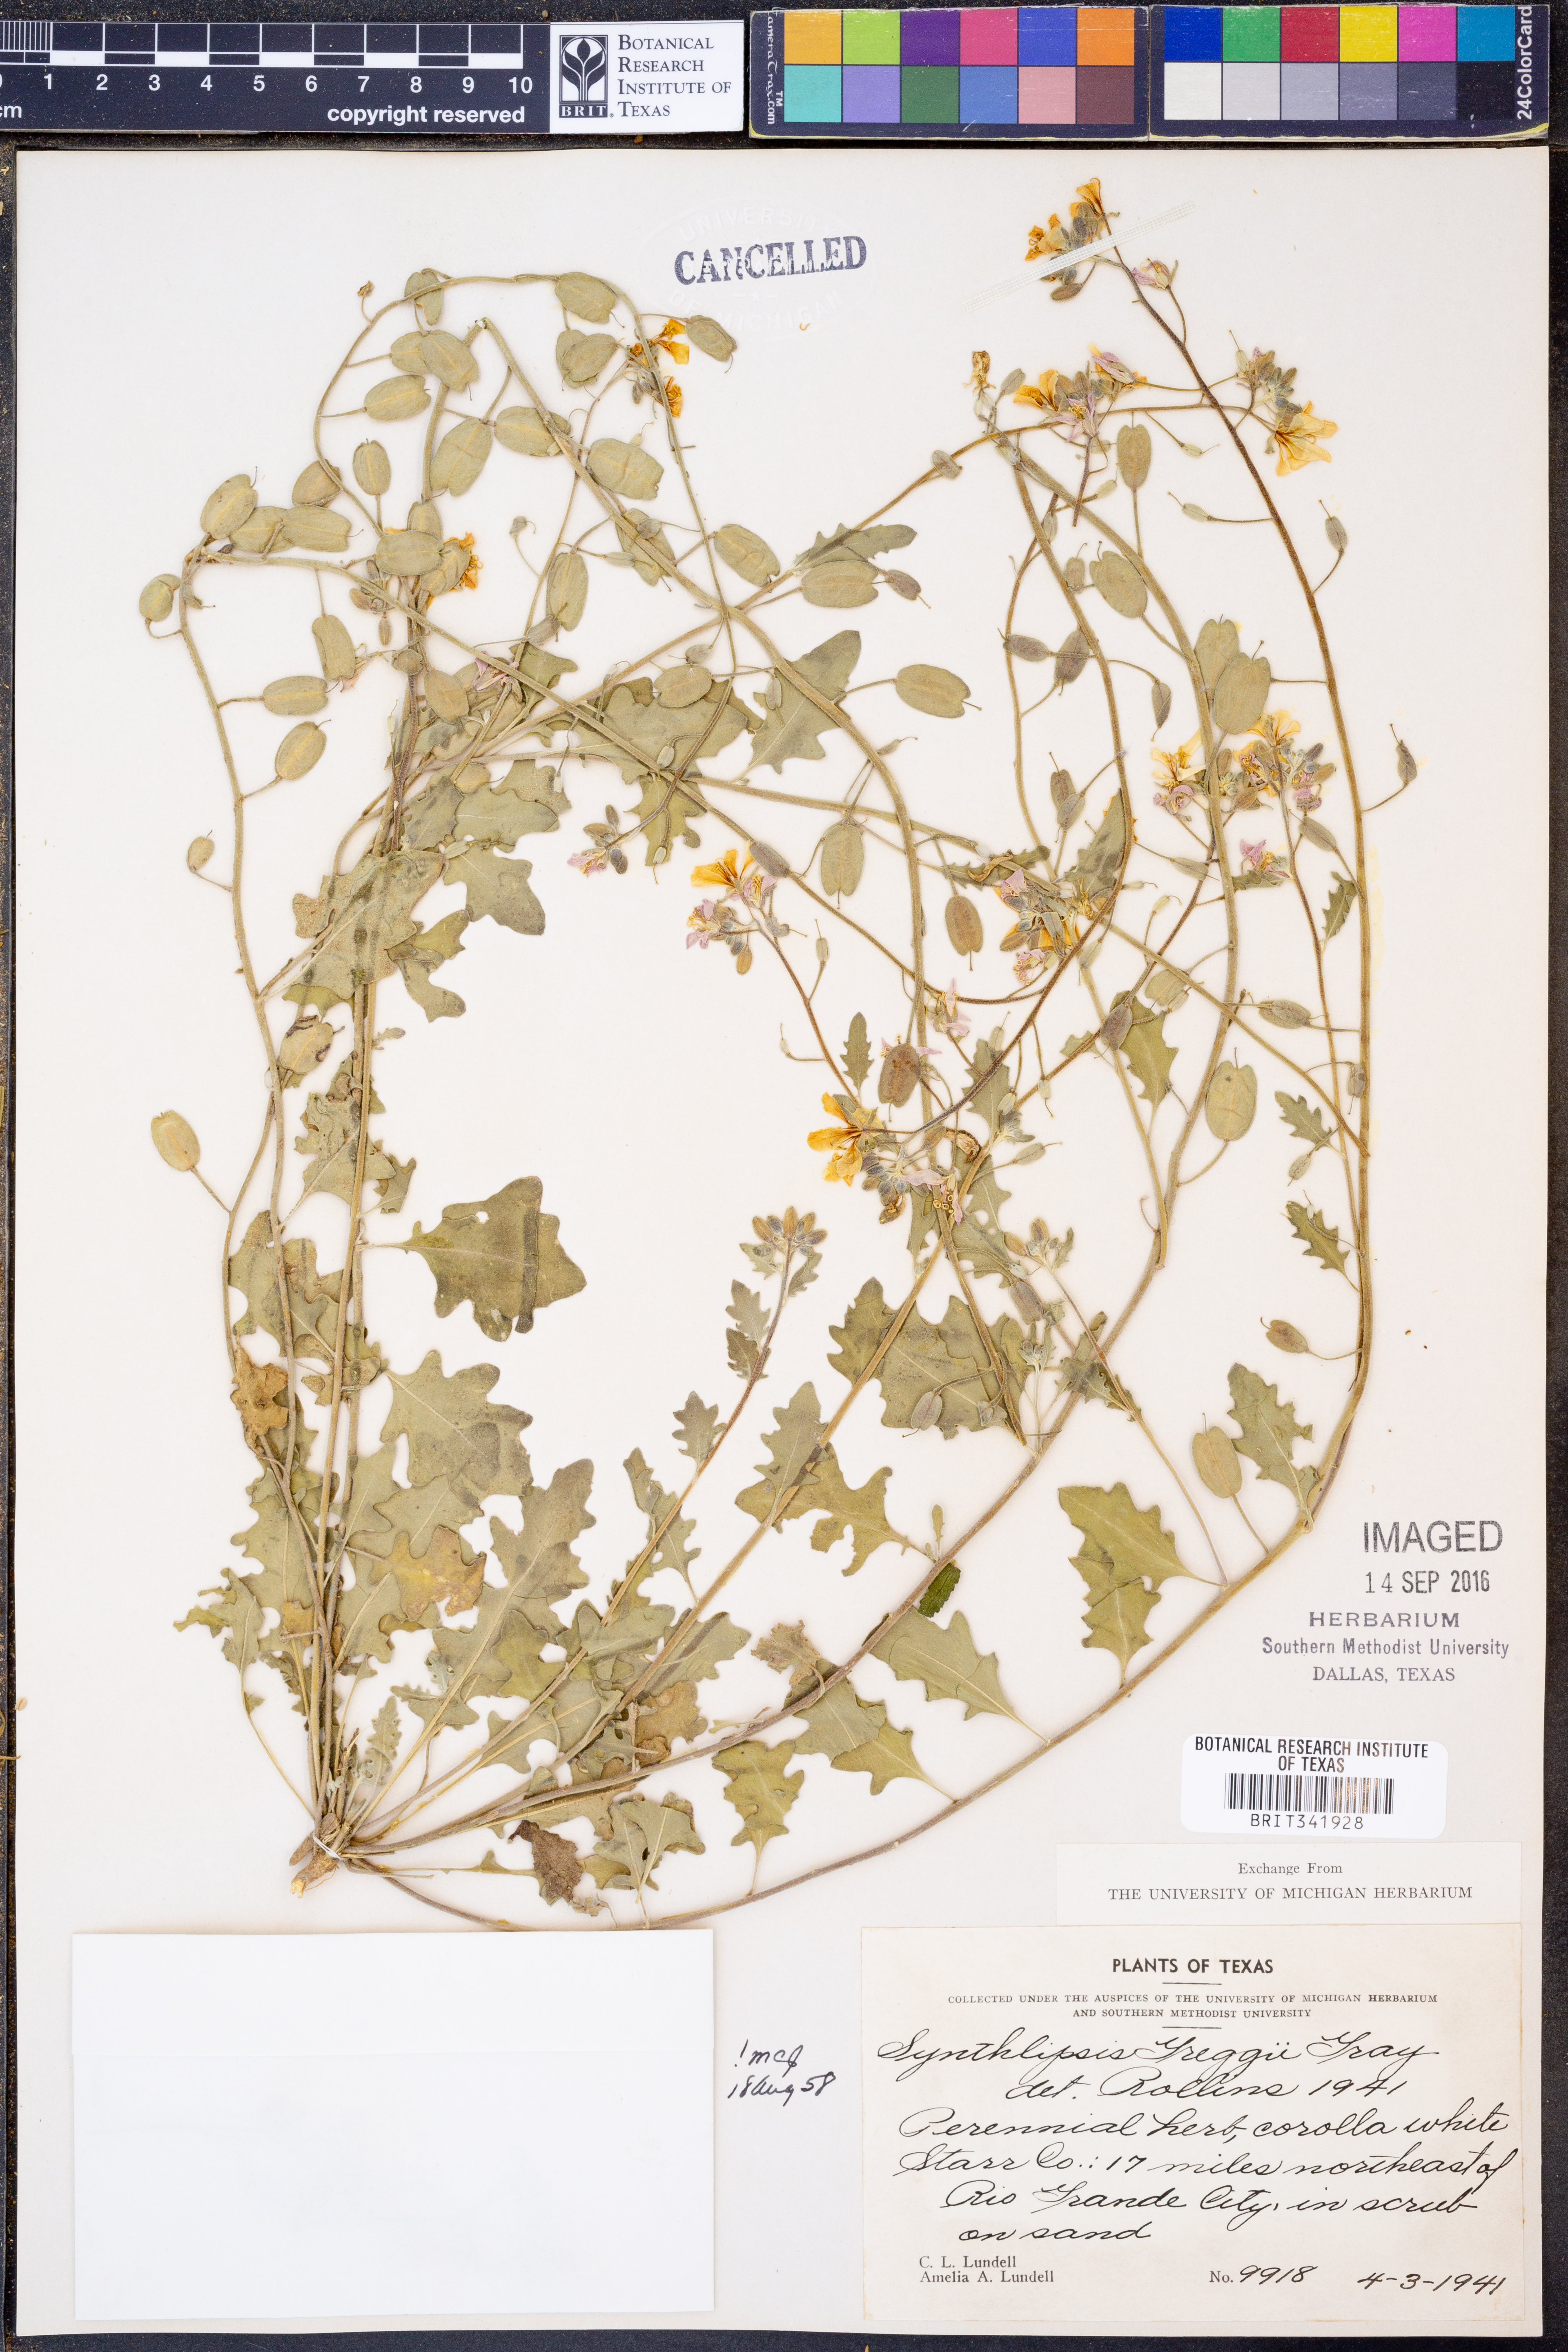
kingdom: Plantae
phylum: Tracheophyta
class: Magnoliopsida
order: Brassicales
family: Brassicaceae
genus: Synthlipsis
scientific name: Synthlipsis greggii
